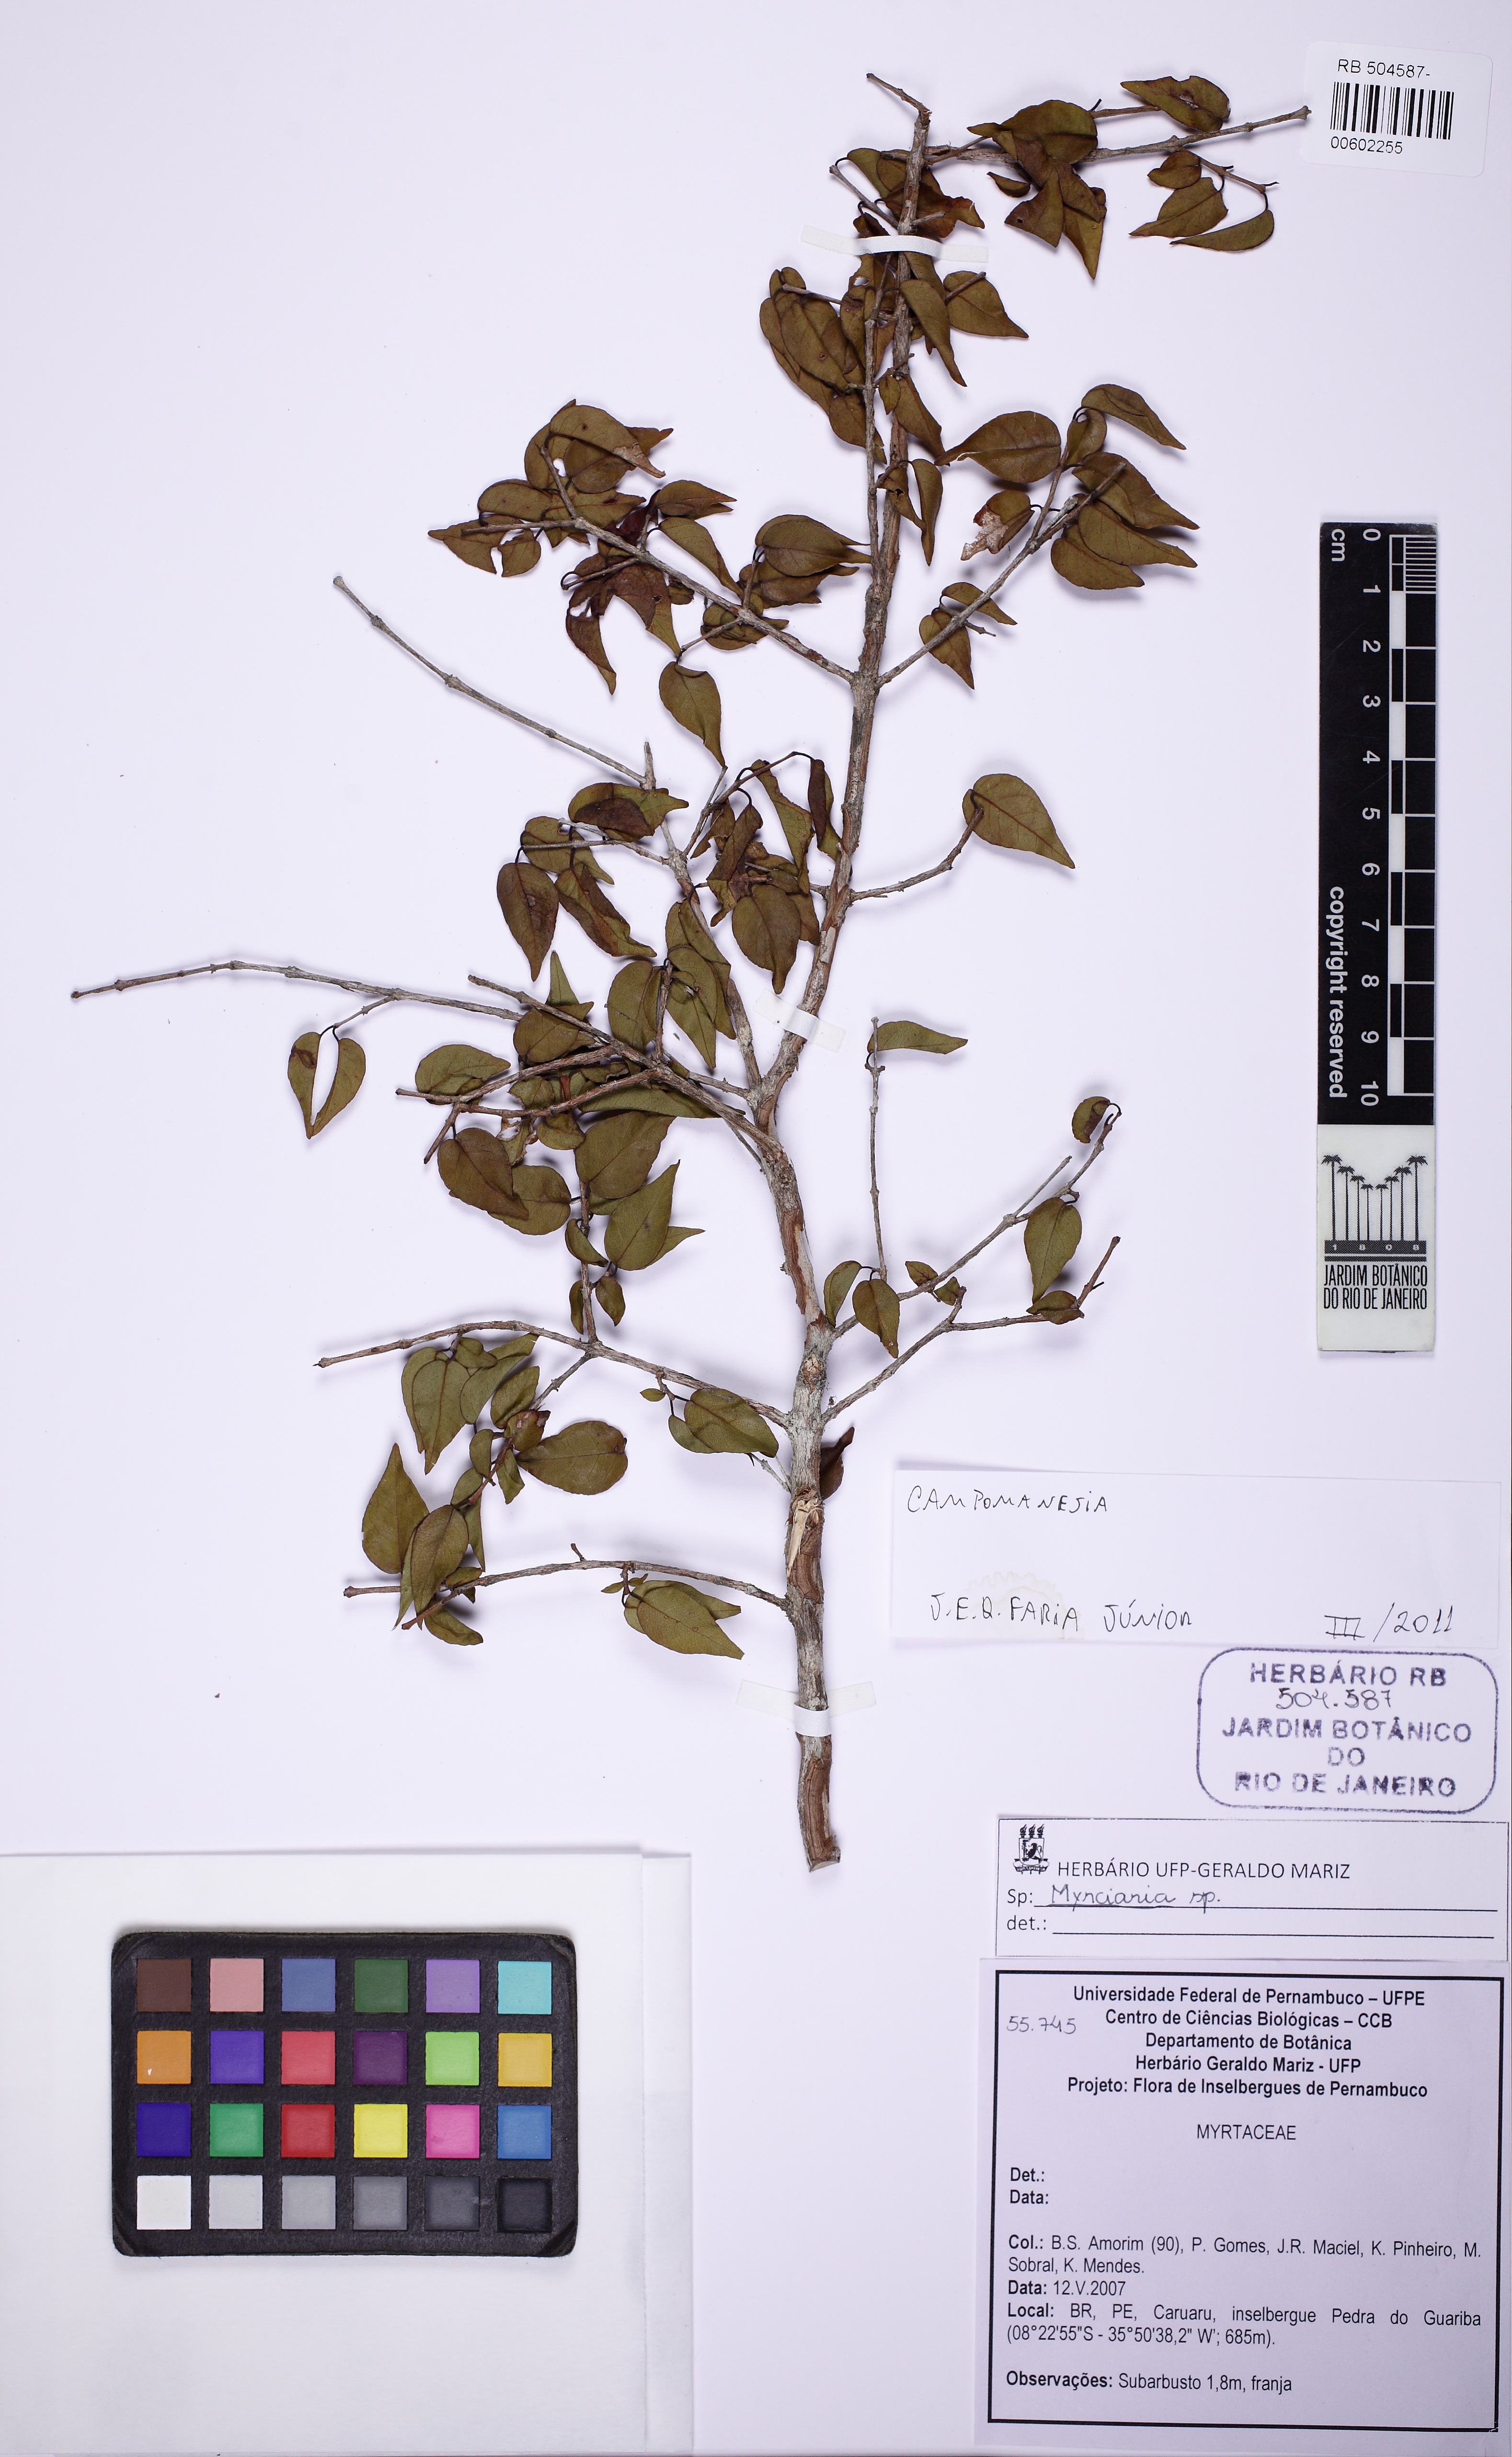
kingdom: Plantae
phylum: Tracheophyta
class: Magnoliopsida
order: Myrtales
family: Myrtaceae
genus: Campomanesia
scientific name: Campomanesia eugenioides
